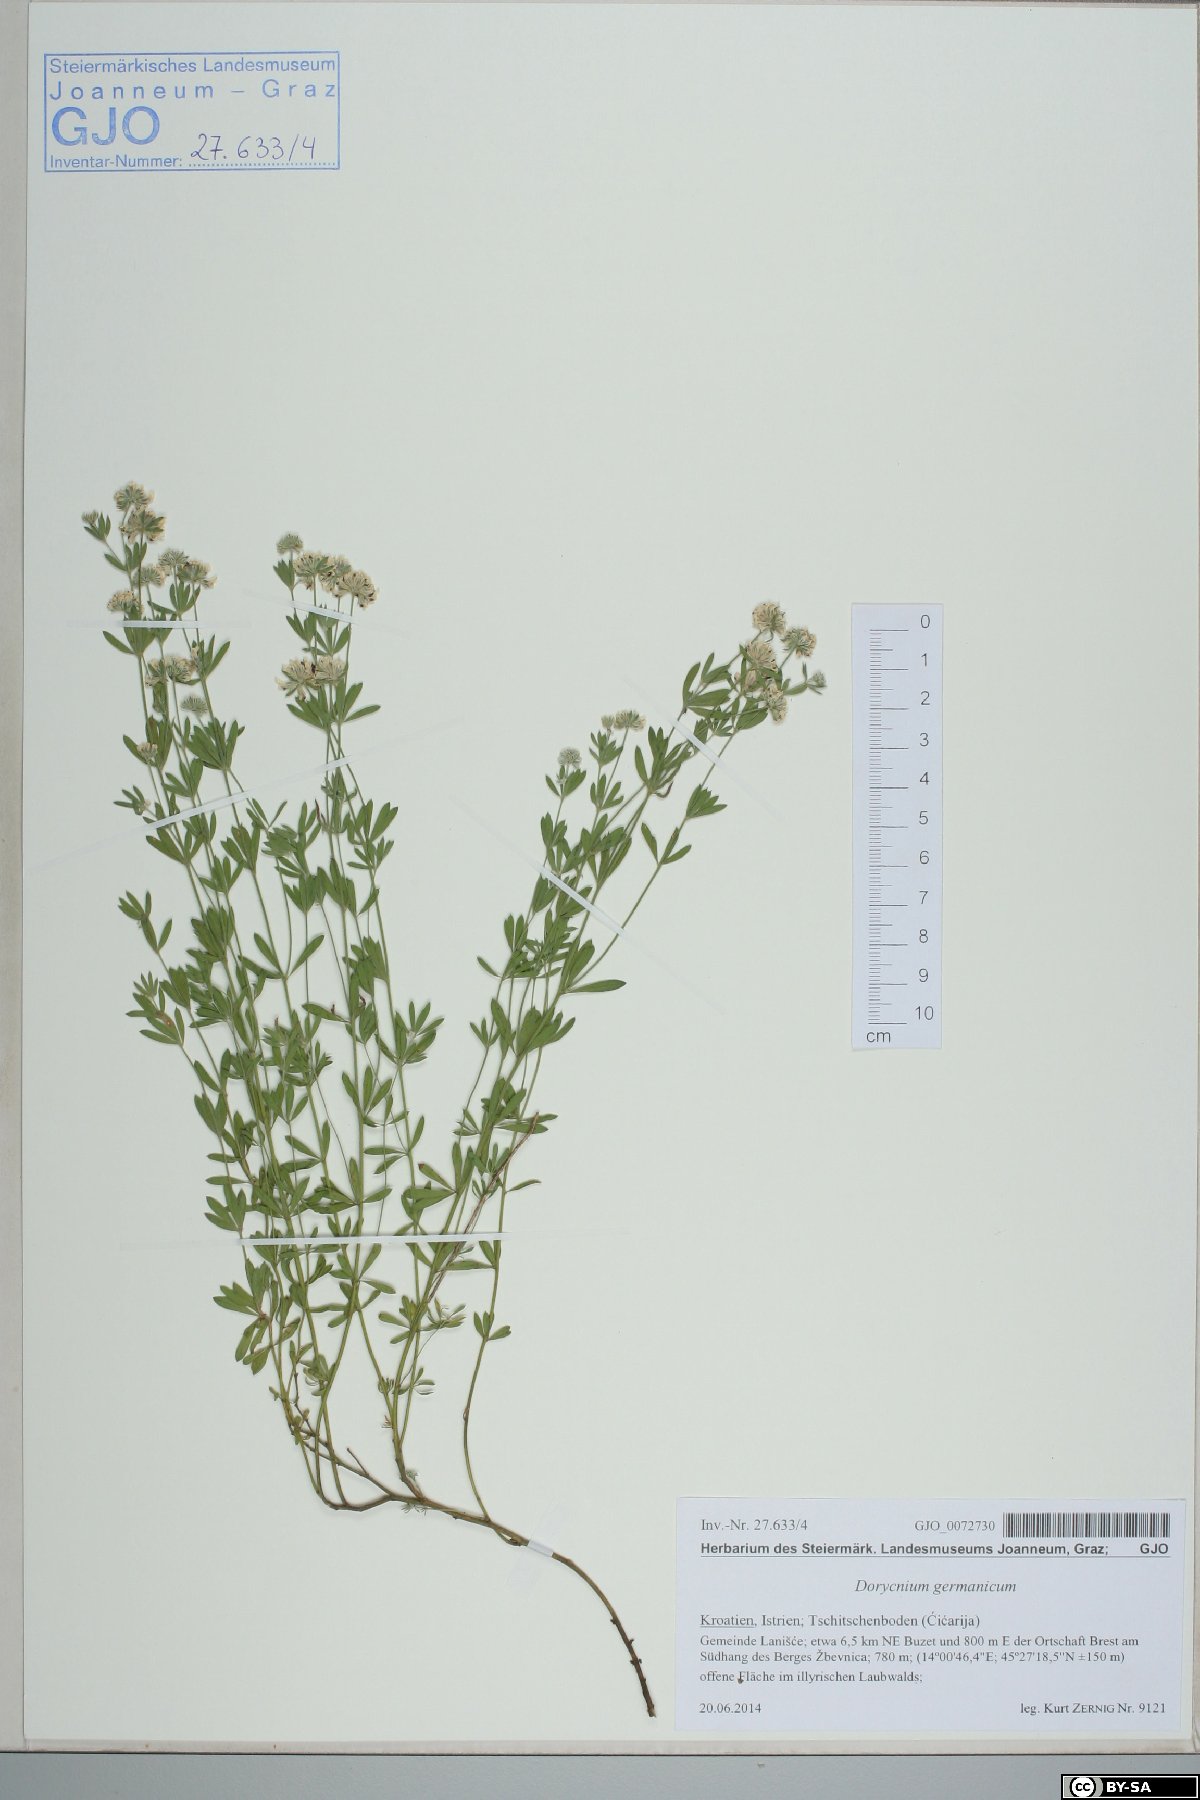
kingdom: Plantae
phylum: Tracheophyta
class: Magnoliopsida
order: Fabales
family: Fabaceae
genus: Lotus
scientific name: Lotus germanicus
